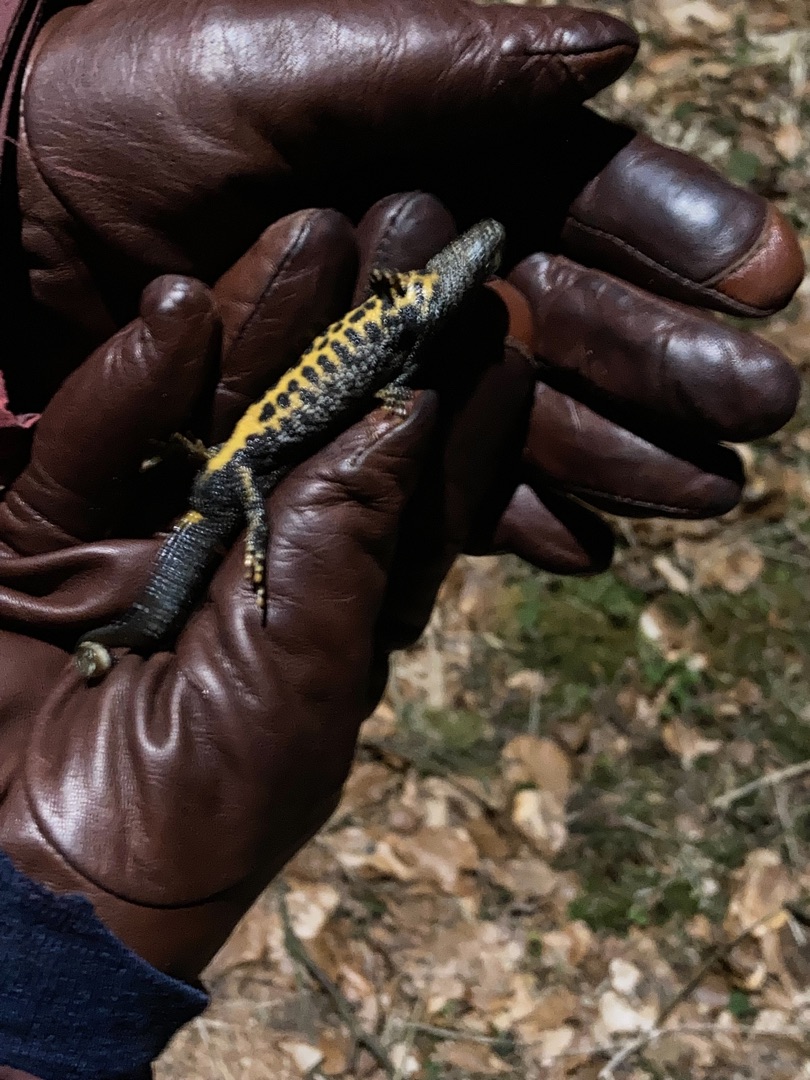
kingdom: Animalia
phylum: Chordata
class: Amphibia
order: Caudata
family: Salamandridae
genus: Triturus
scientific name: Triturus cristatus
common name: Stor vandsalamander
